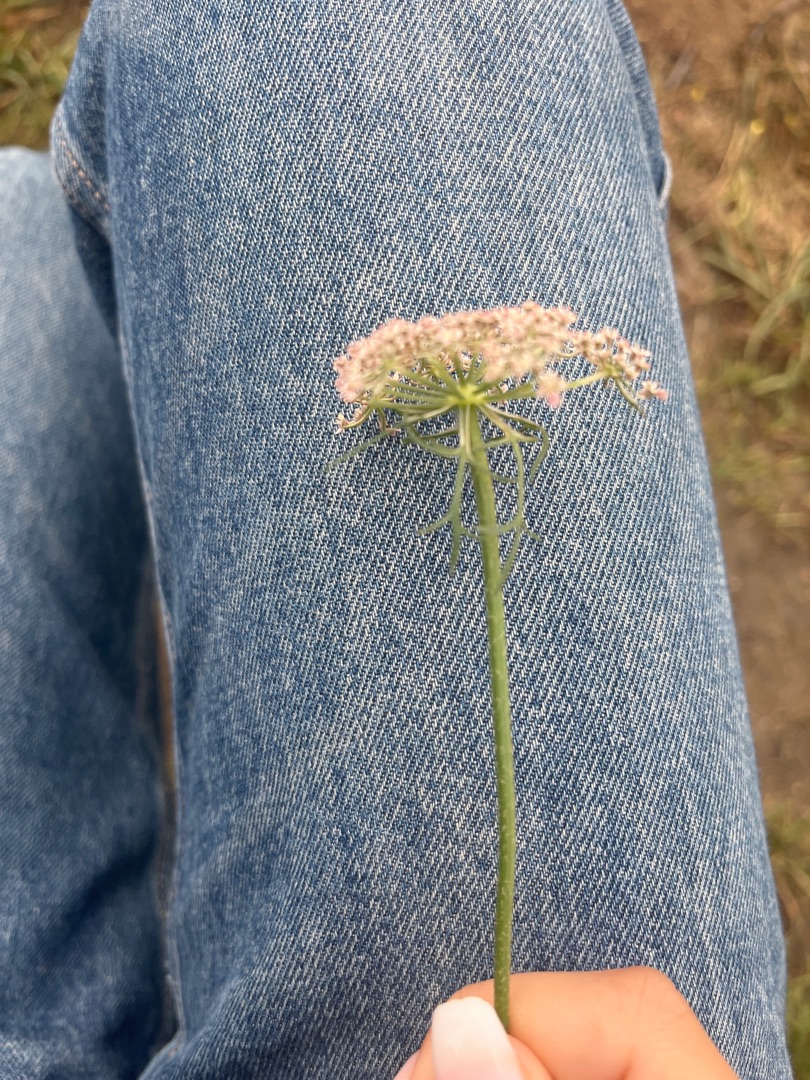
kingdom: Plantae
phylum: Tracheophyta
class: Magnoliopsida
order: Apiales
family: Apiaceae
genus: Daucus
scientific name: Daucus carota
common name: Gulerod
